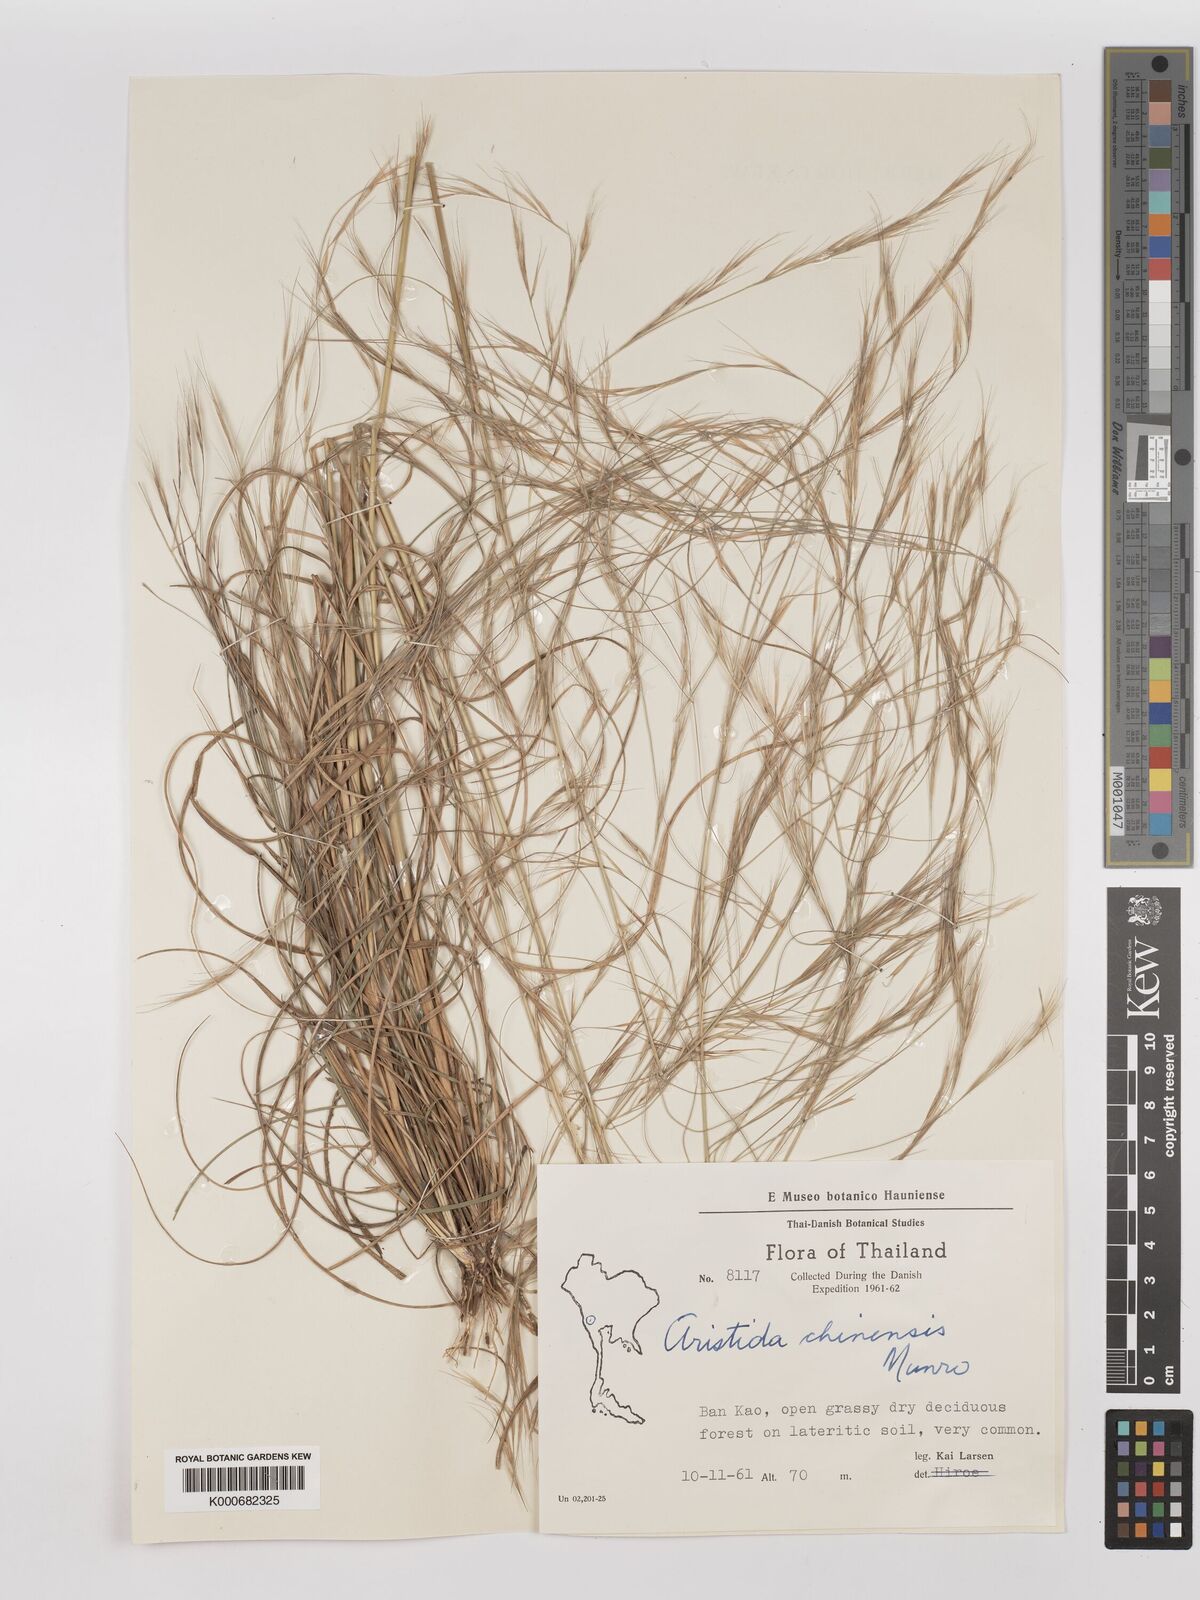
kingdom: Plantae
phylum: Tracheophyta
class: Liliopsida
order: Poales
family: Poaceae
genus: Aristida
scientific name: Aristida chinensis
